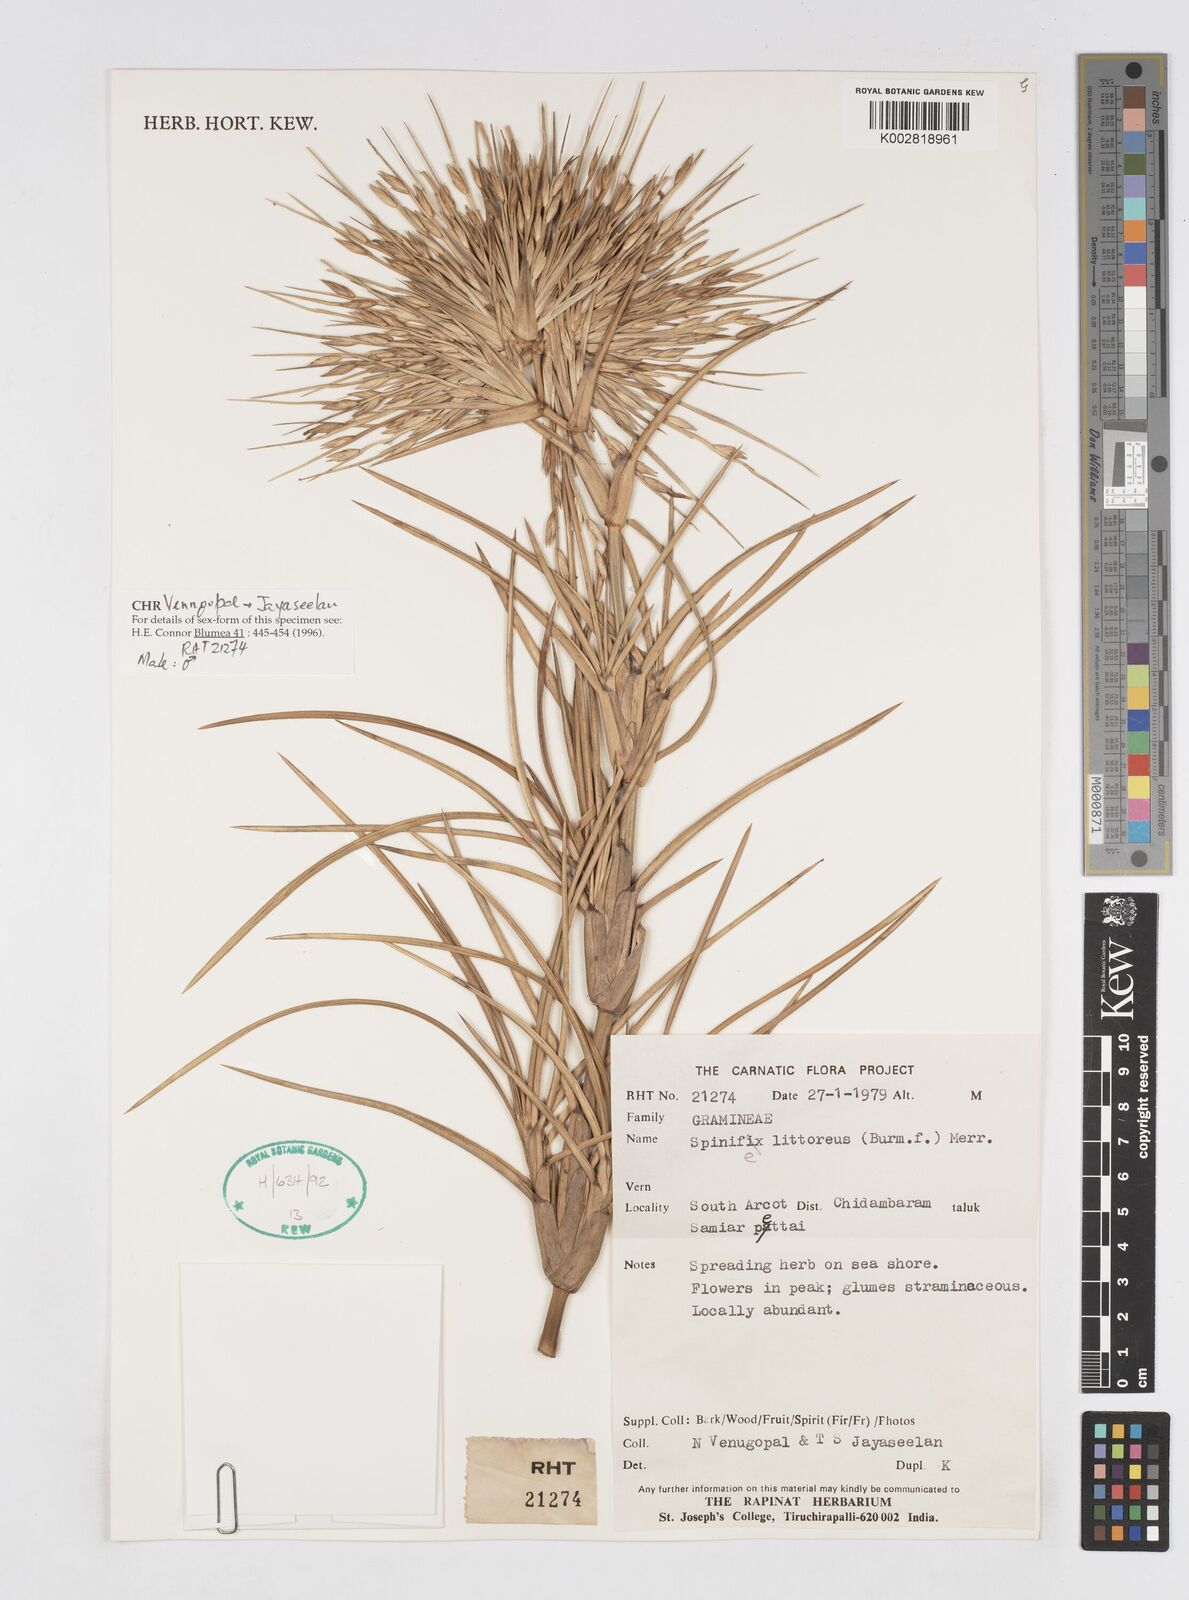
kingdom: Plantae
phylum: Tracheophyta
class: Liliopsida
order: Poales
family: Poaceae
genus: Spinifex
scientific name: Spinifex littoreus
